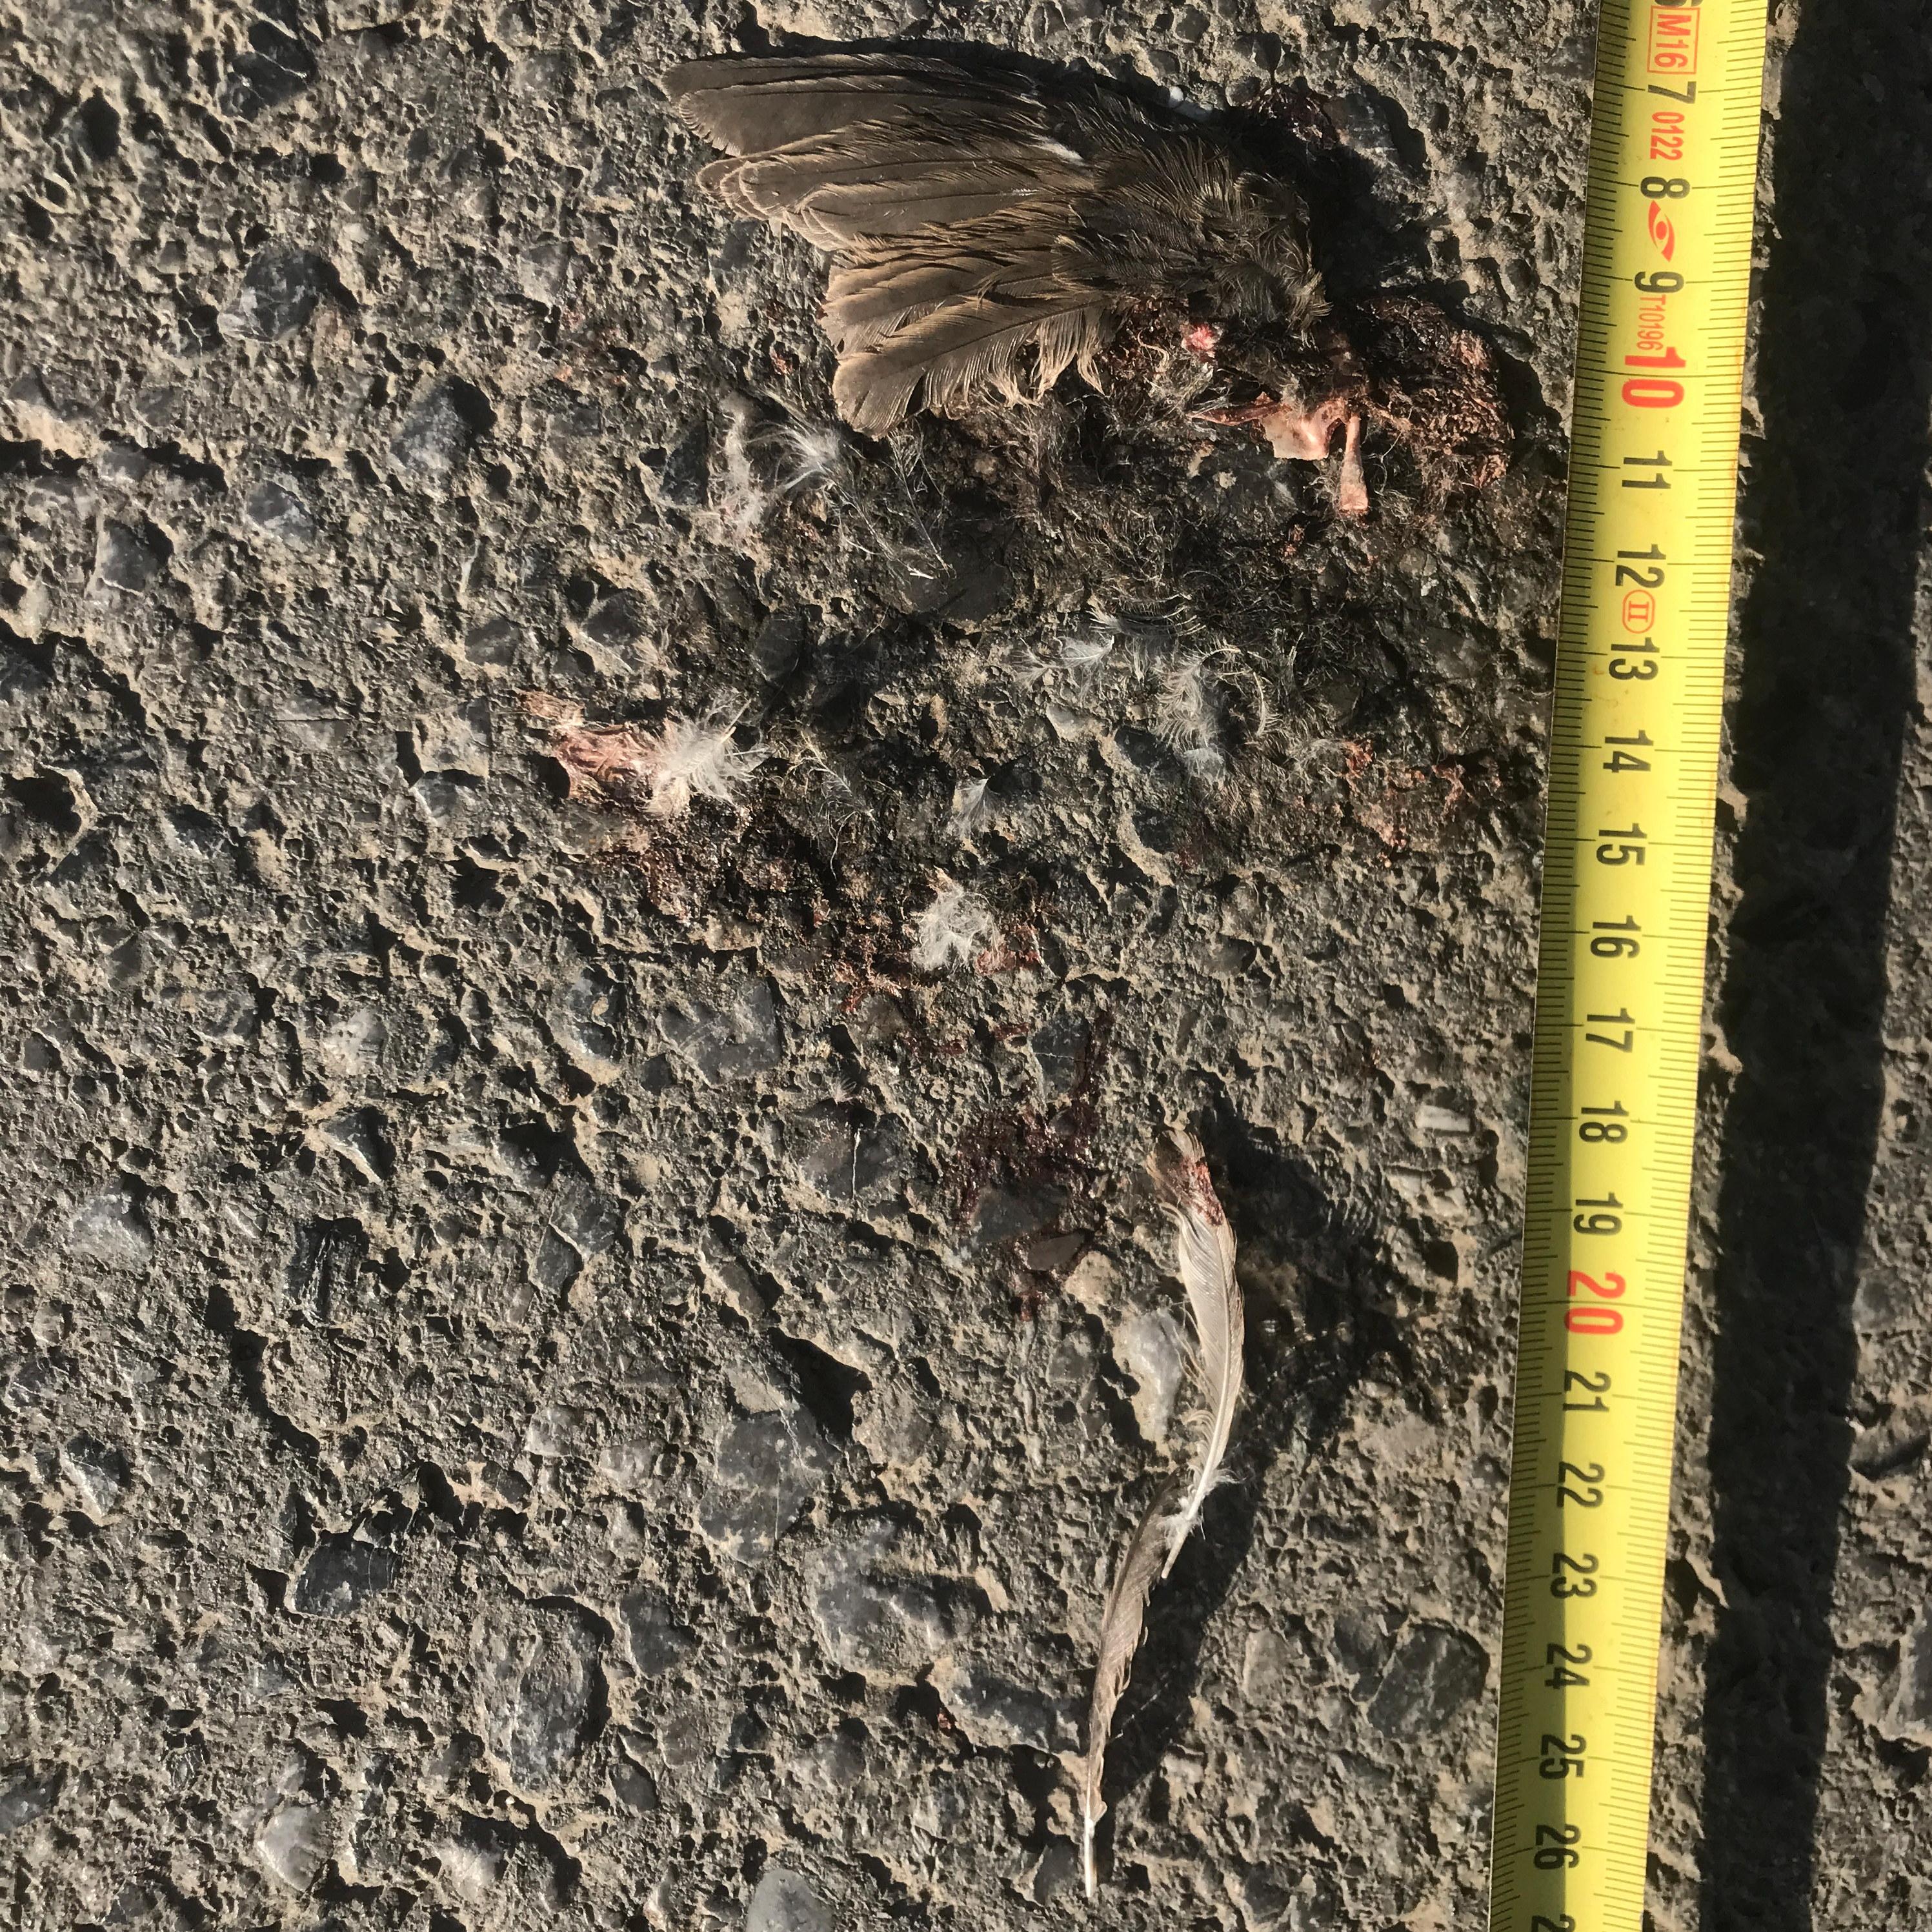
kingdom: Animalia
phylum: Chordata
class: Aves
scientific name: Aves
